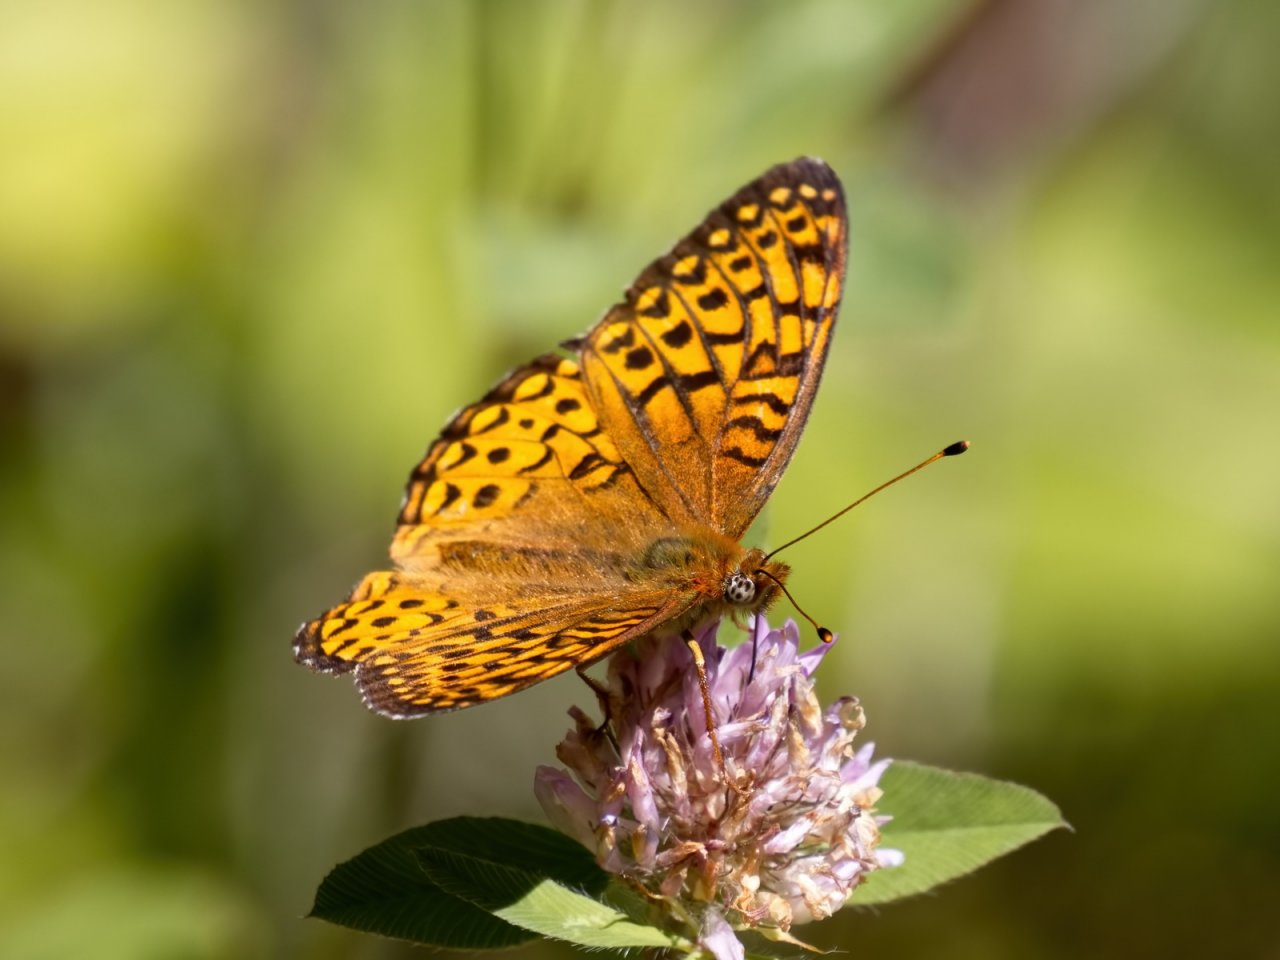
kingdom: Animalia
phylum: Arthropoda
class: Insecta
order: Lepidoptera
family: Nymphalidae
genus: Speyeria
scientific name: Speyeria atlantis
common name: Atlantis Fritillary
